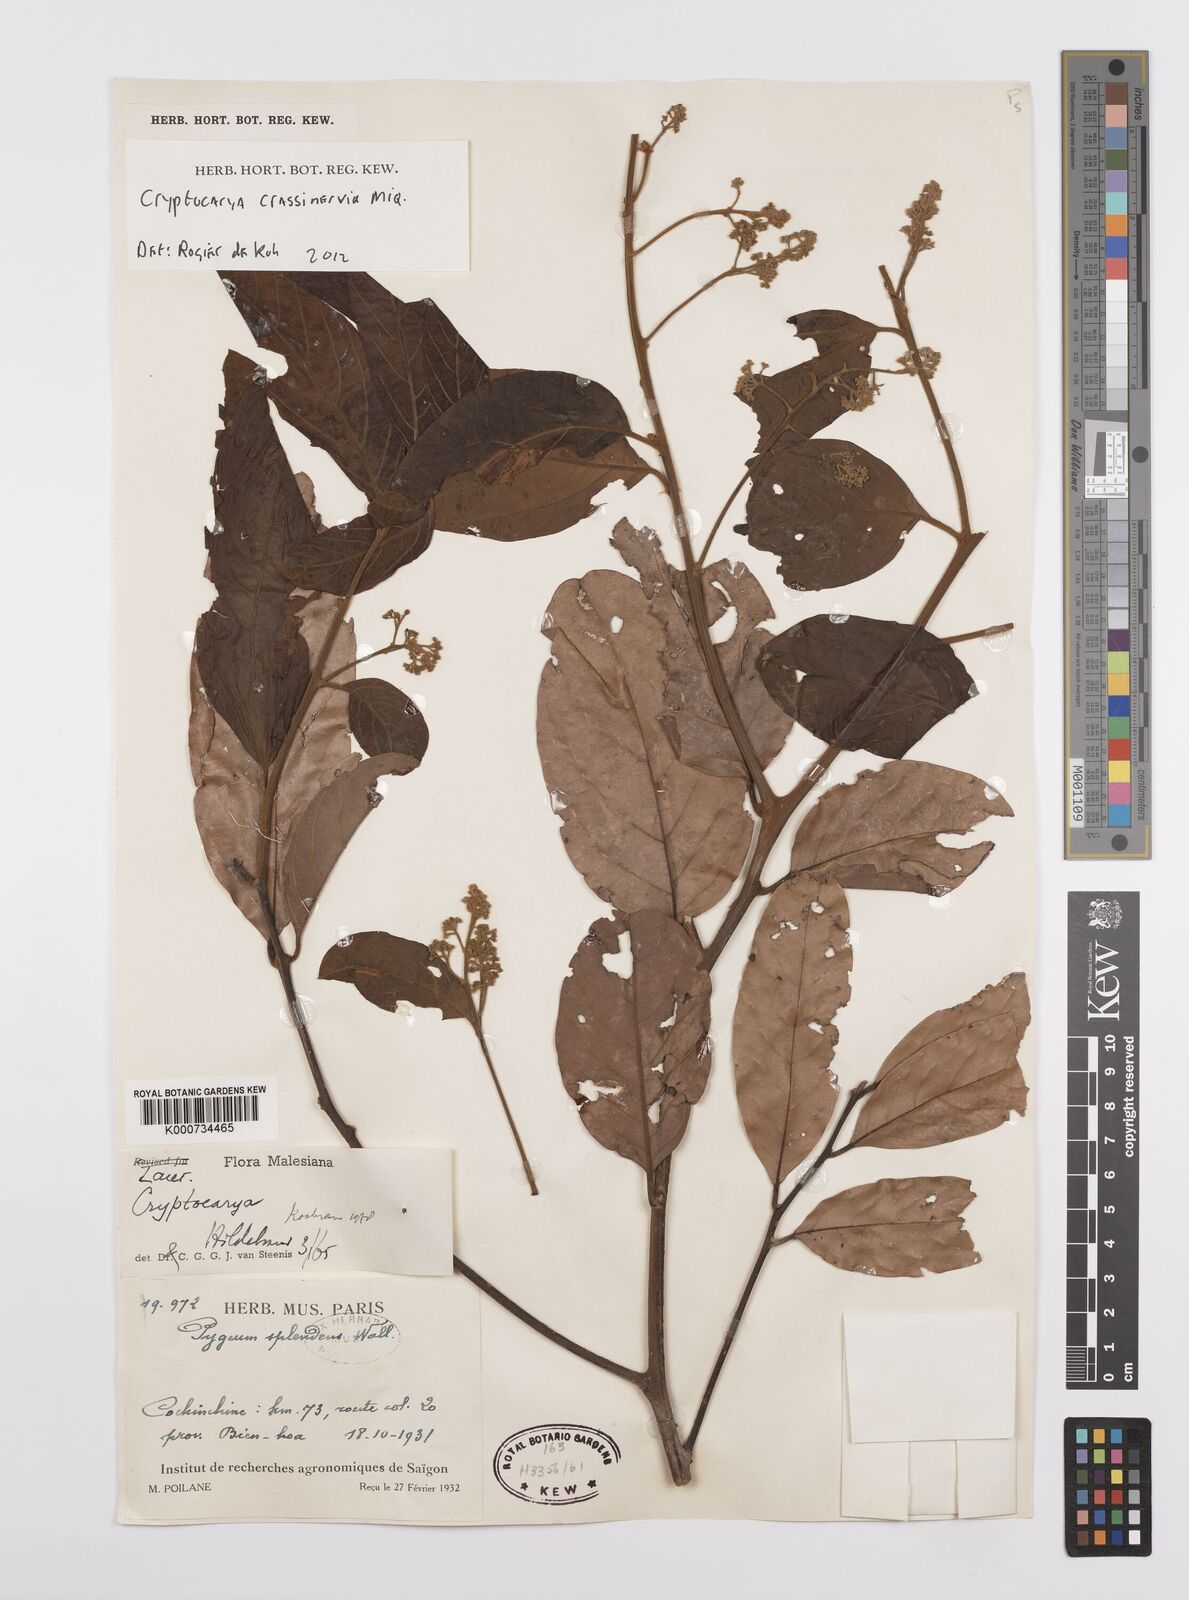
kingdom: Plantae
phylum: Tracheophyta
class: Magnoliopsida
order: Laurales
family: Lauraceae
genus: Cryptocarya
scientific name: Cryptocarya diversifolia
